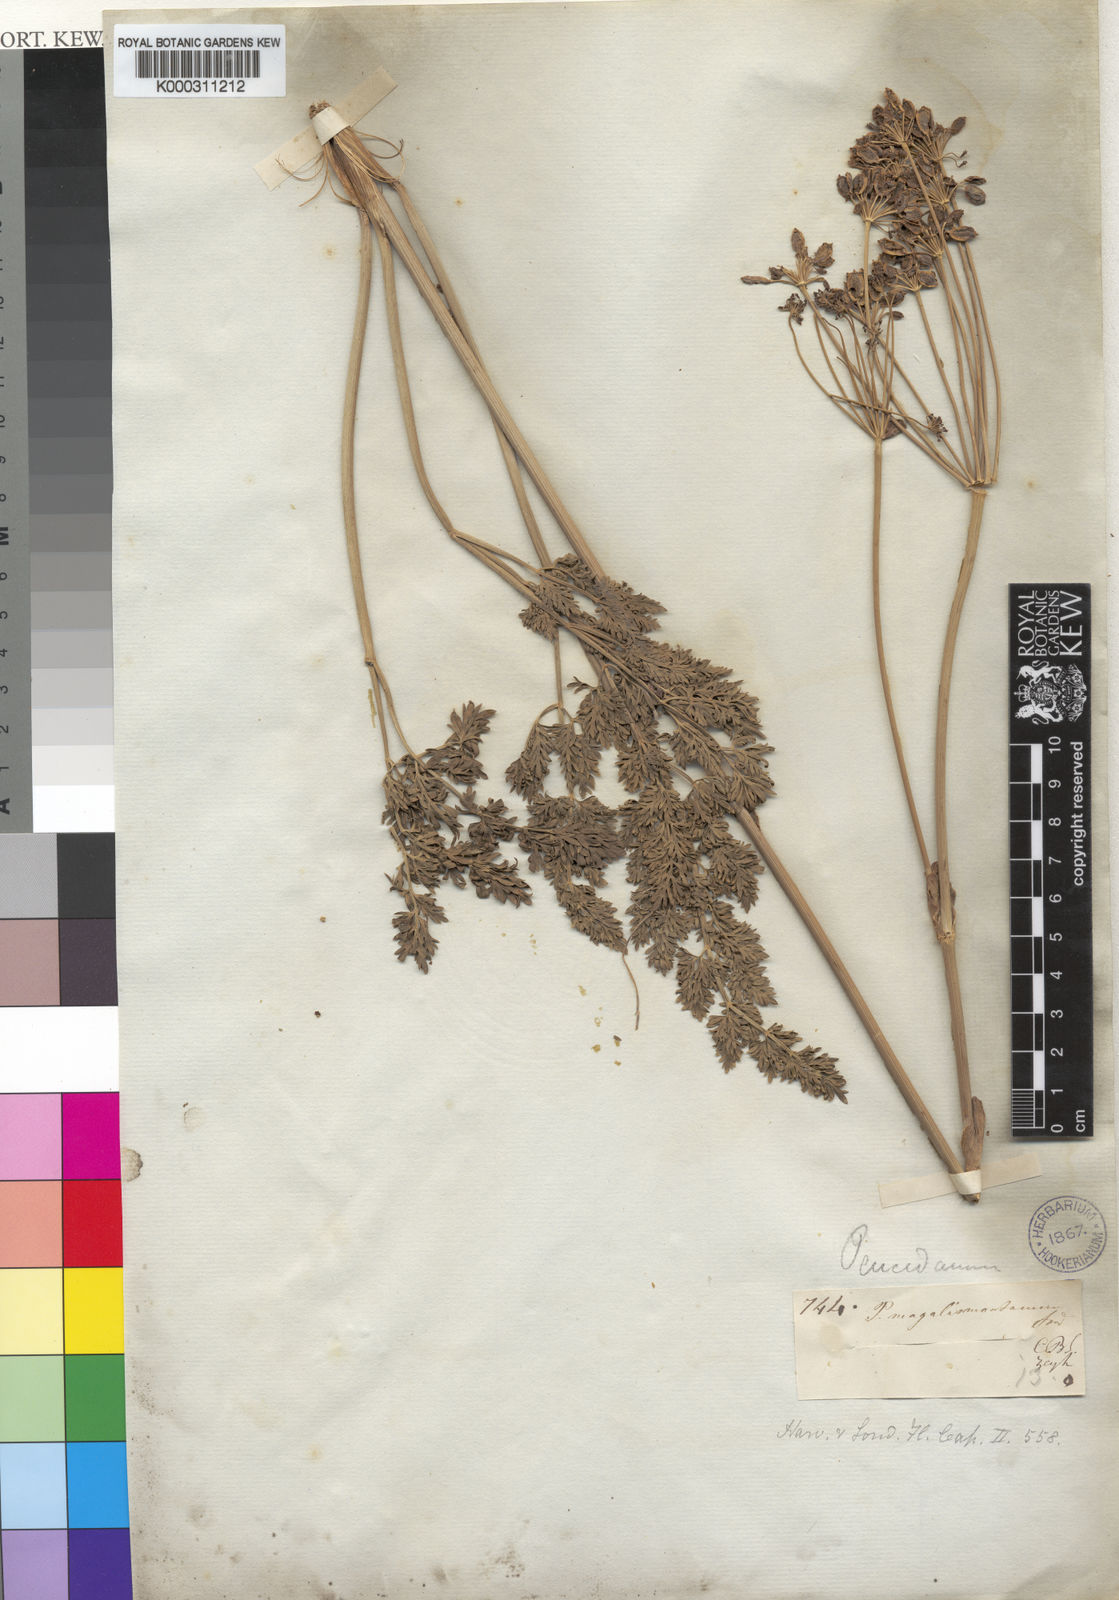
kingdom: Plantae
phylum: Tracheophyta
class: Magnoliopsida
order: Apiales
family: Apiaceae
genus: Afrosciadium
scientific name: Afrosciadium magalismontanum
